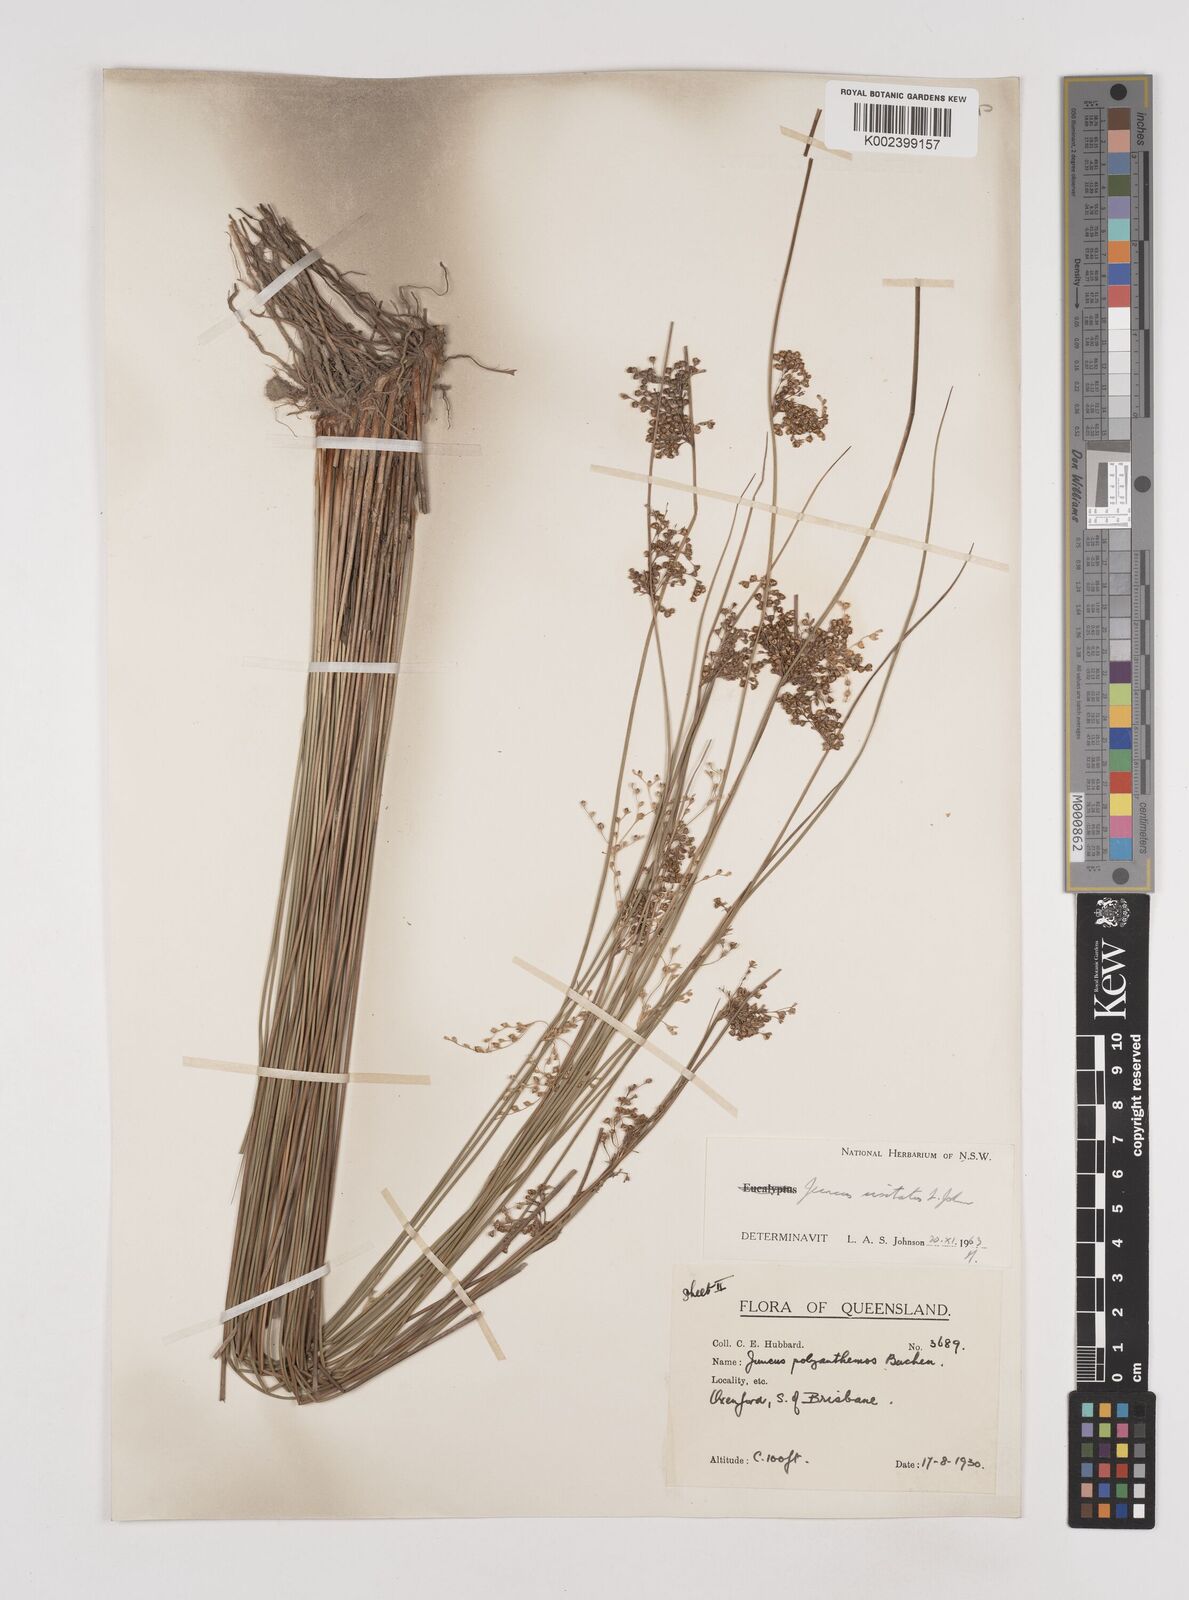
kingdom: Plantae
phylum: Tracheophyta
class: Liliopsida
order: Poales
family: Juncaceae
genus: Juncus
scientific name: Juncus usitatus
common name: Rush
